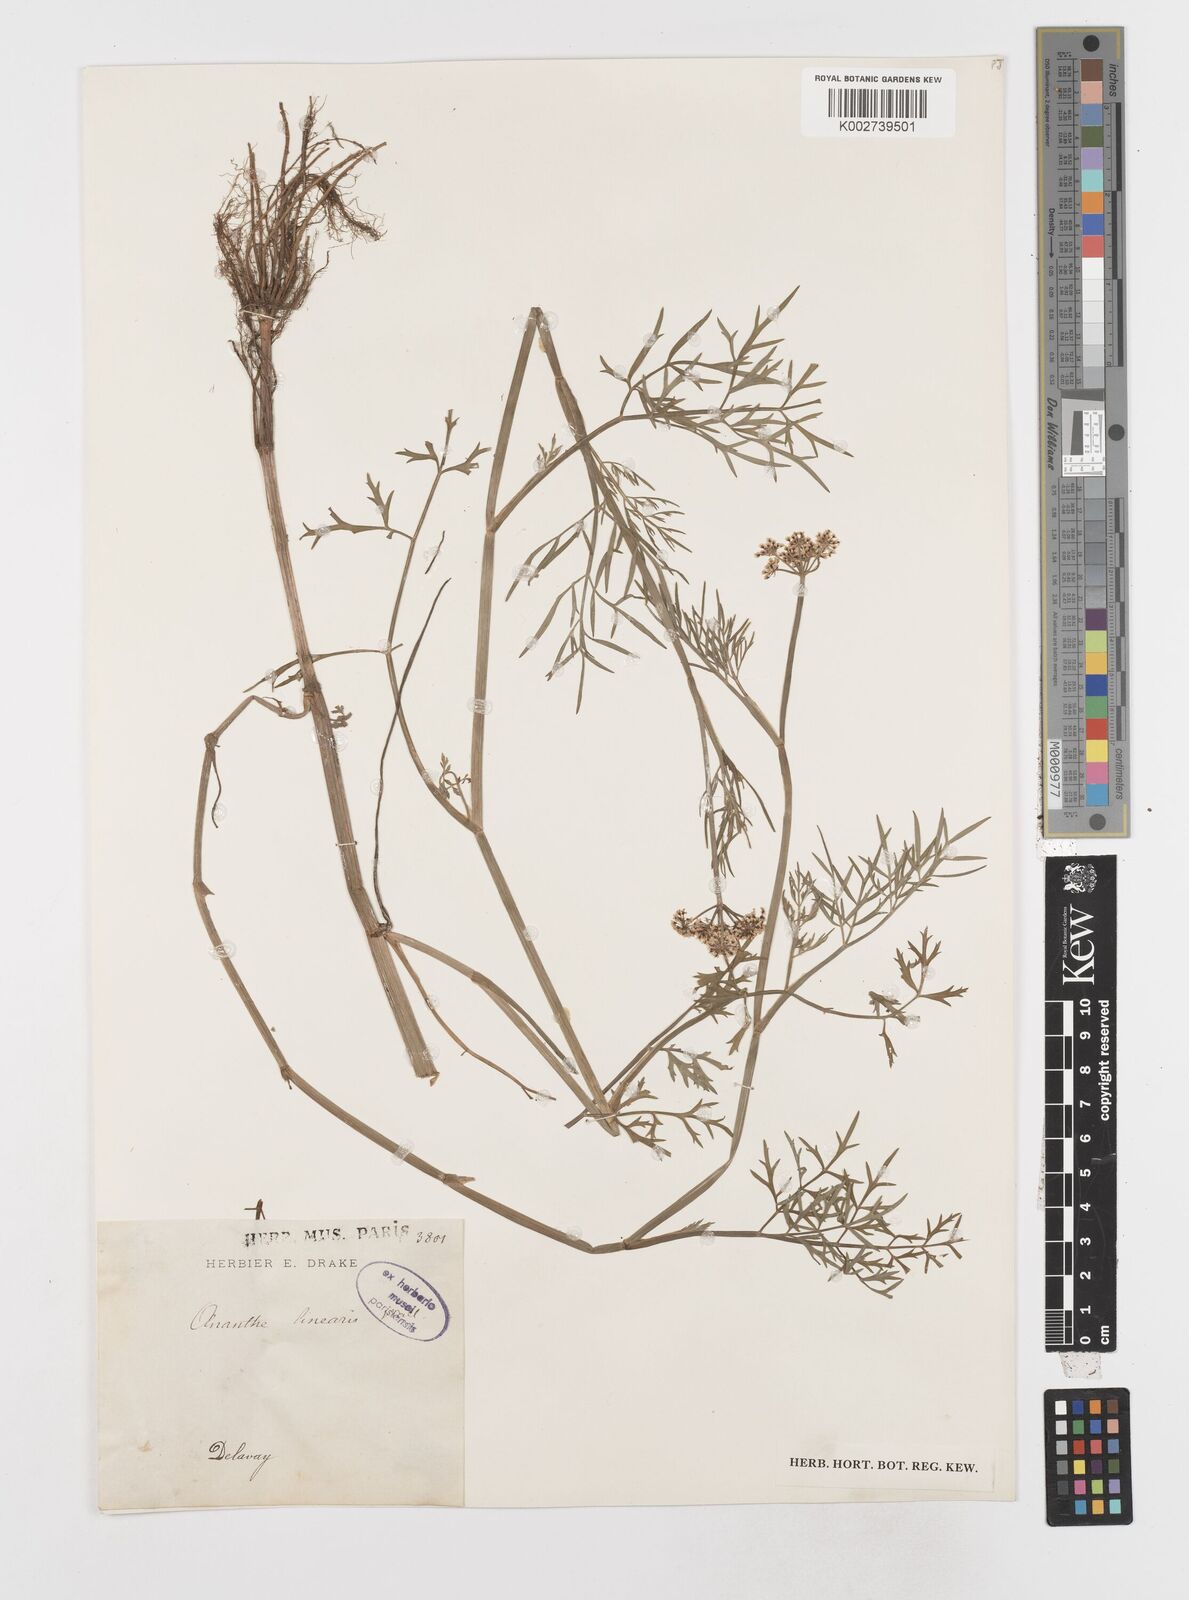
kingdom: Plantae
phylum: Tracheophyta
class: Magnoliopsida
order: Apiales
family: Apiaceae
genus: Oenanthe
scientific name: Oenanthe linearis
